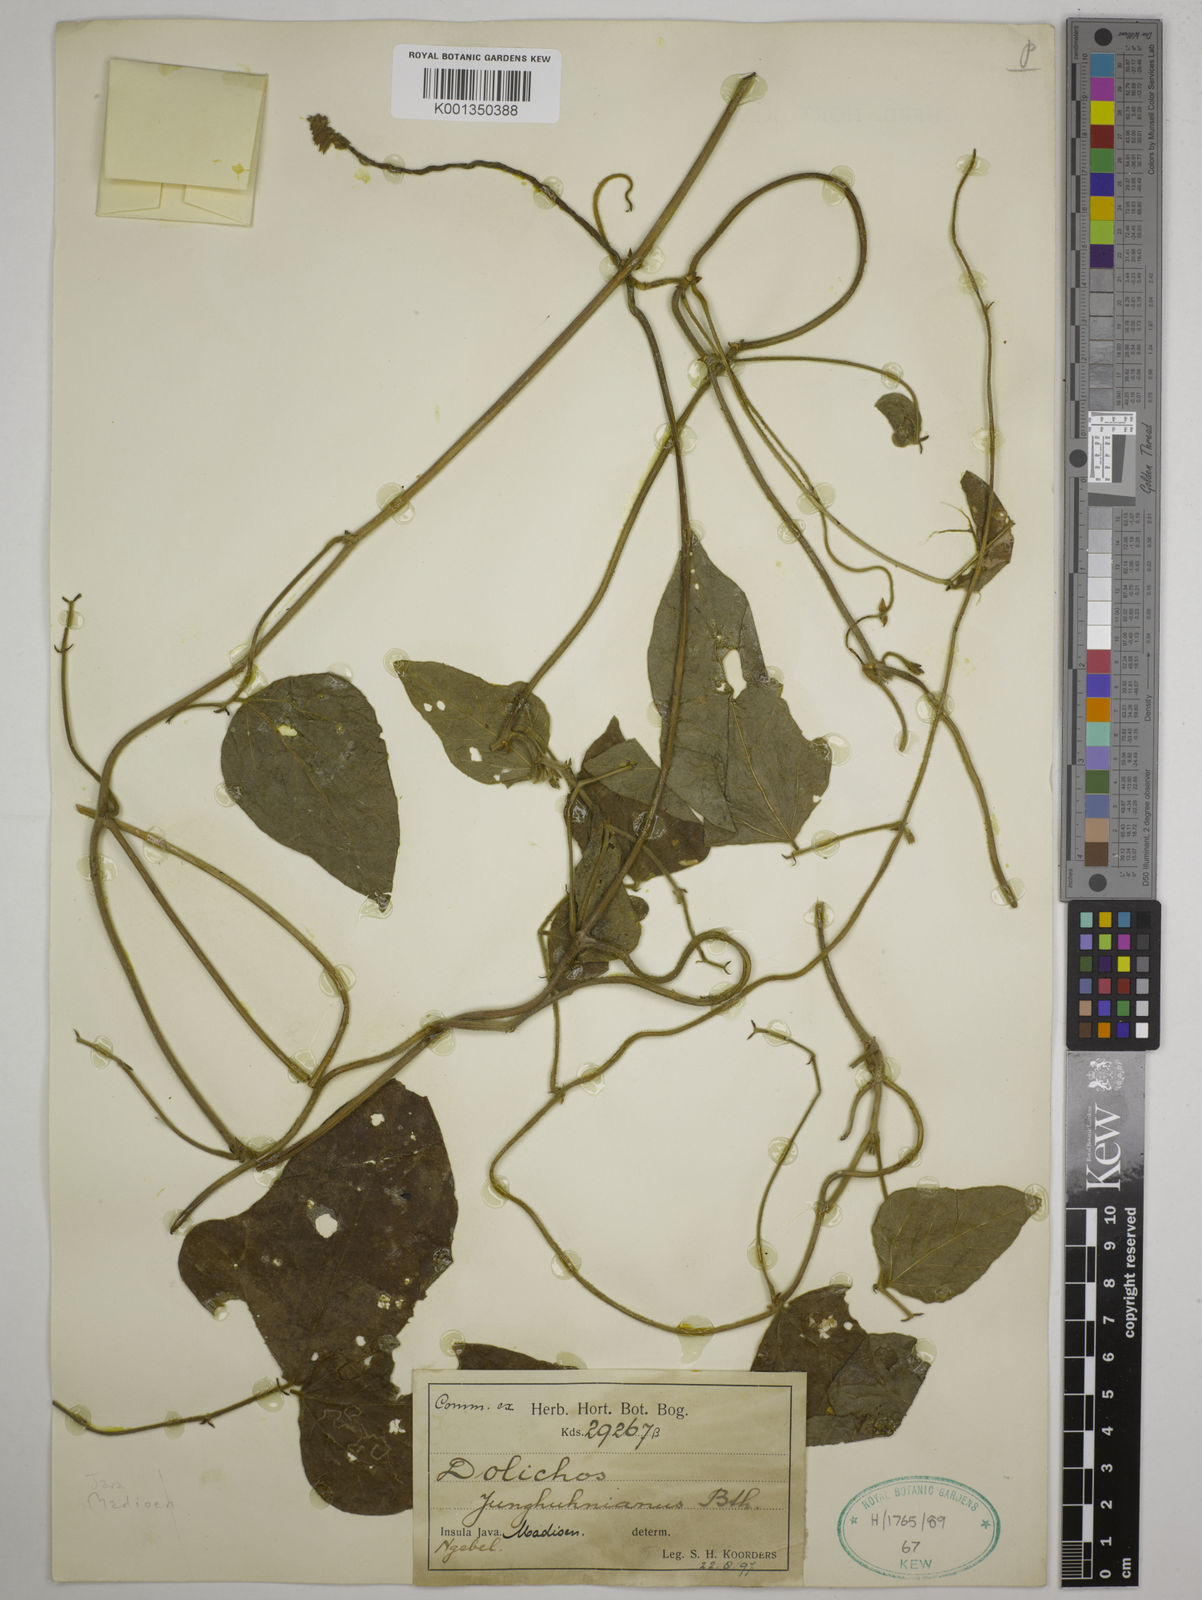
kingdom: Plantae
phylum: Tracheophyta
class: Magnoliopsida
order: Fabales
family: Fabaceae
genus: Dolichos
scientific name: Dolichos junghuhnianus
